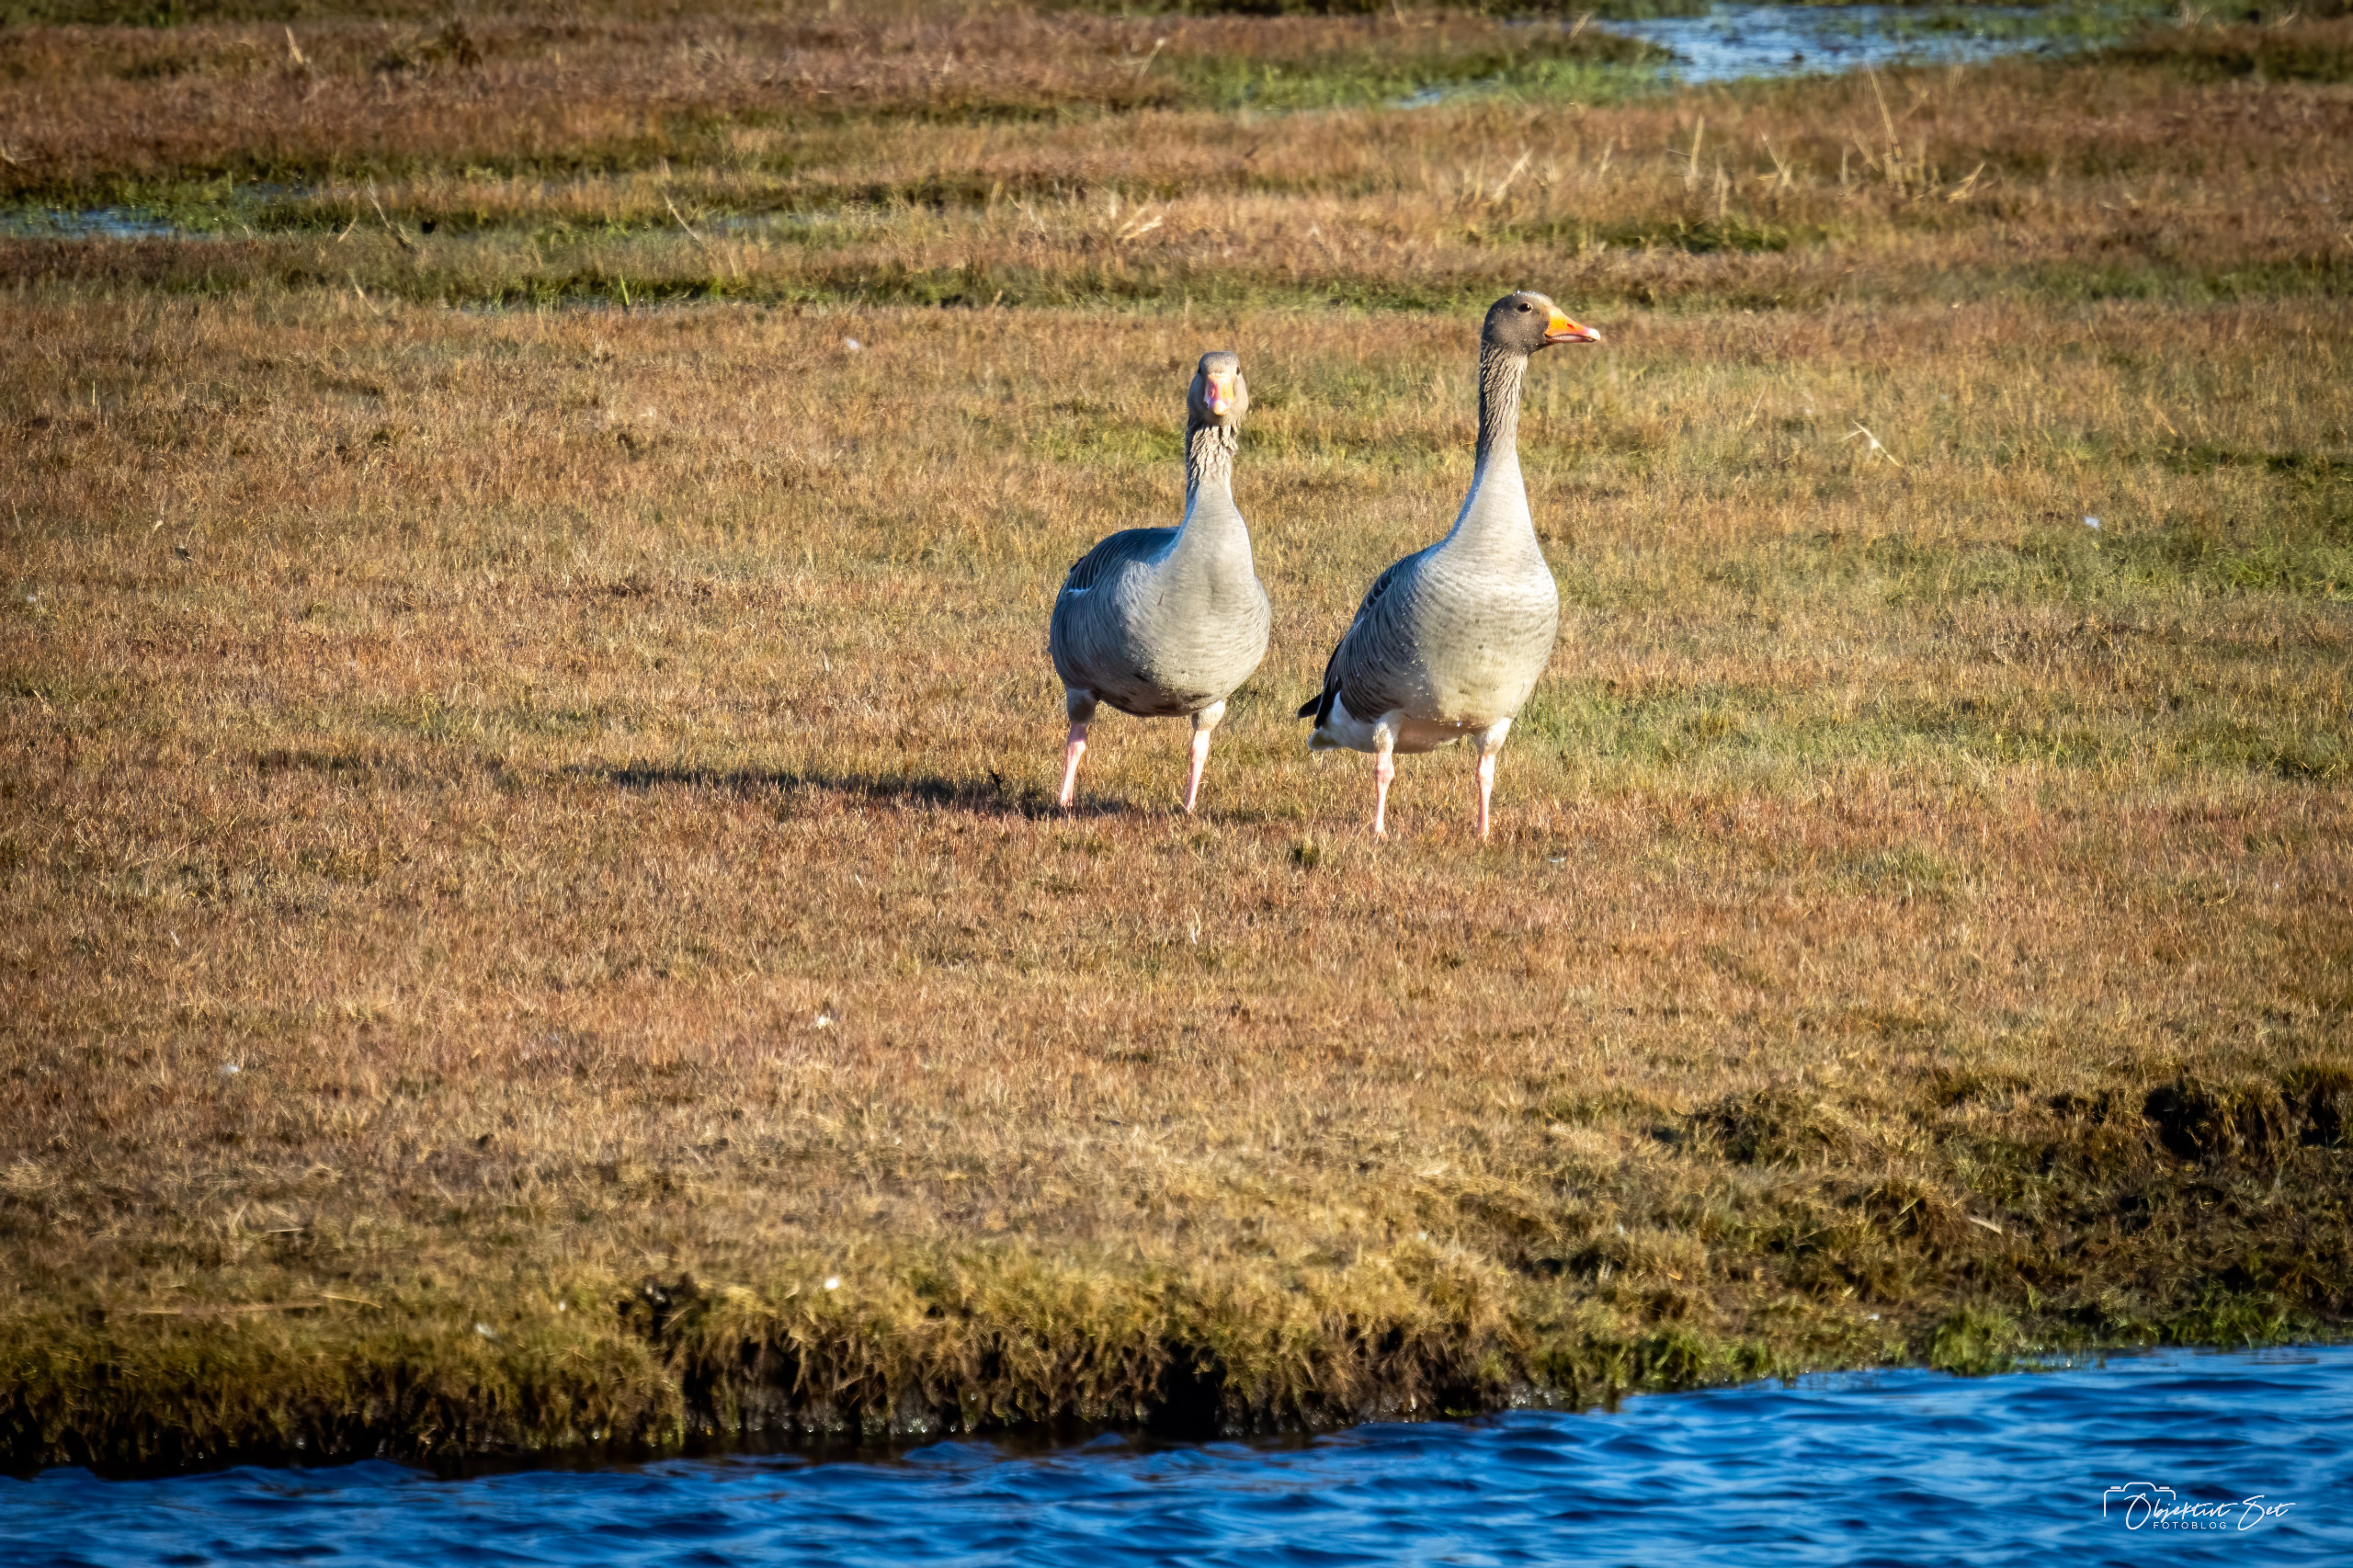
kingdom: Animalia
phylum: Chordata
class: Aves
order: Anseriformes
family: Anatidae
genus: Anser
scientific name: Anser anser
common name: Grågås
